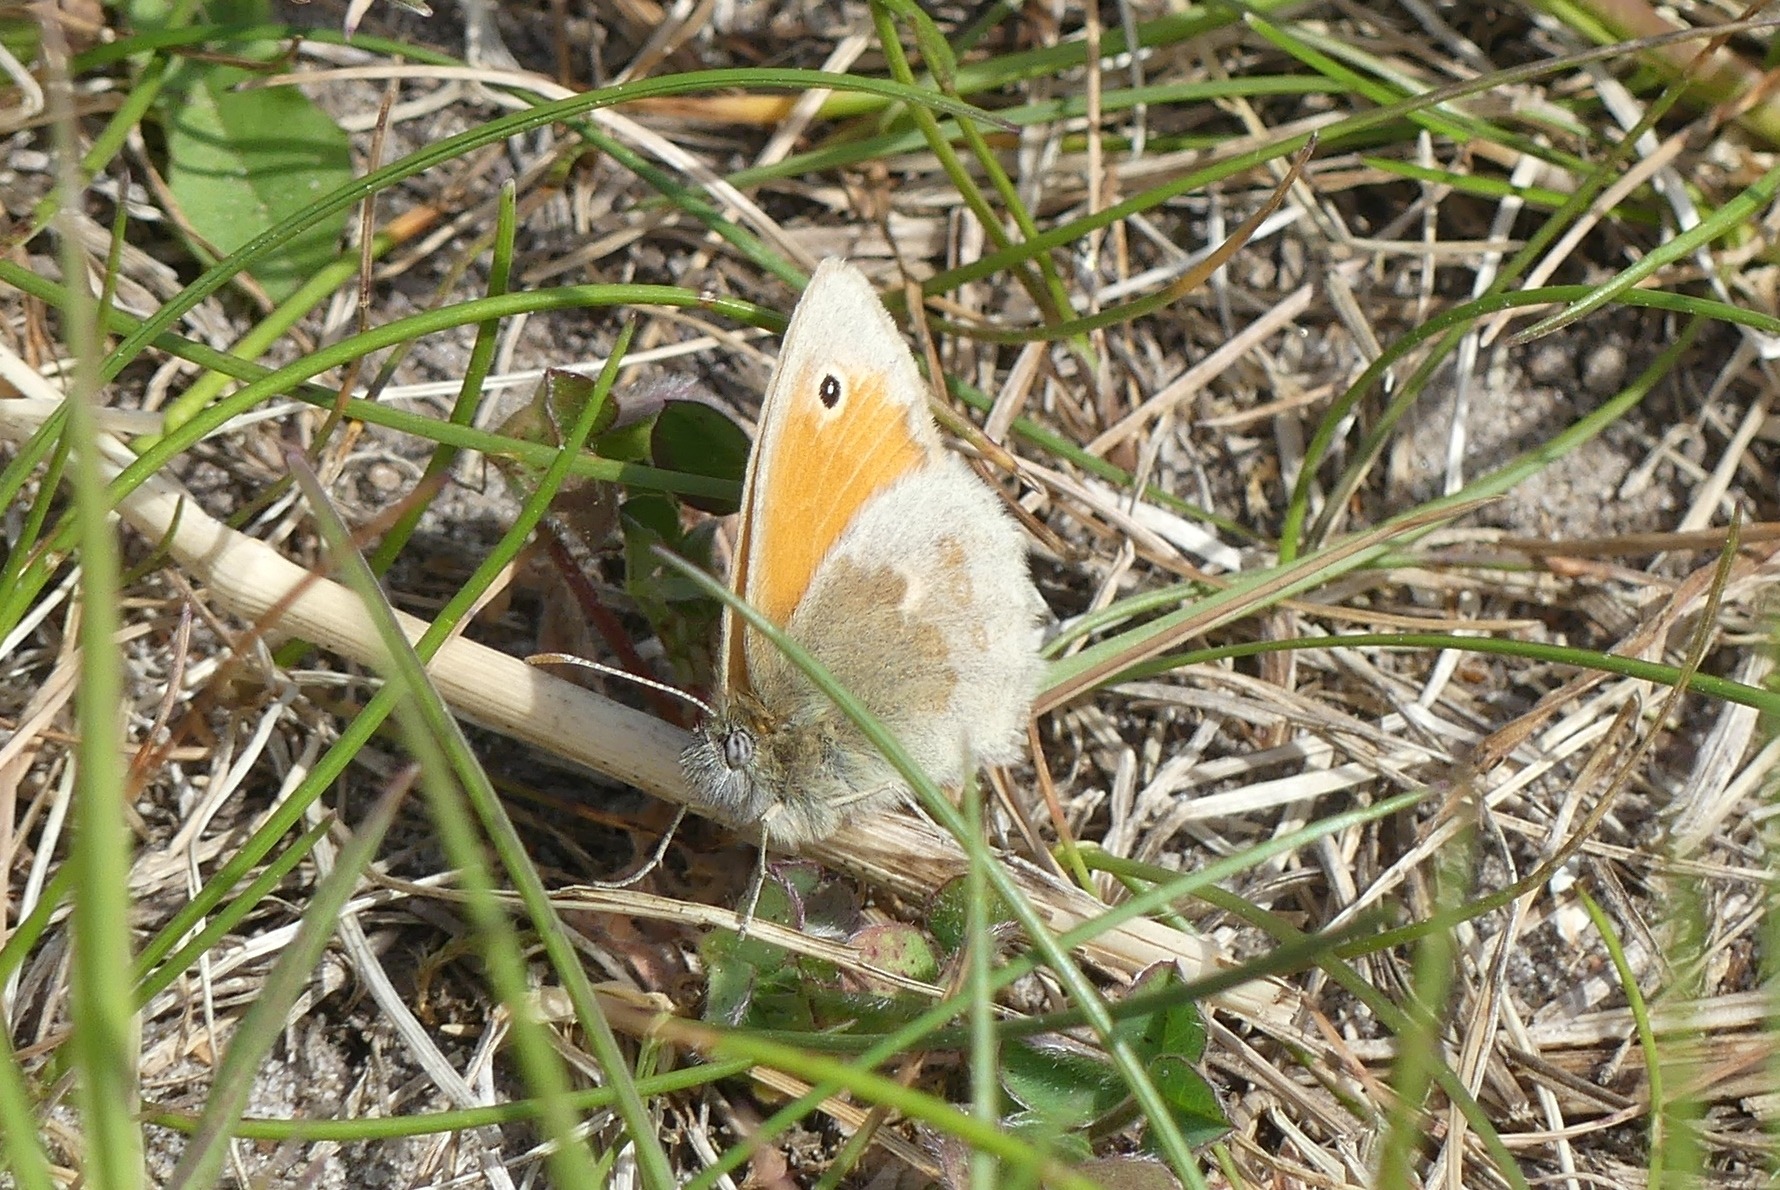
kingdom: Animalia
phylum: Arthropoda
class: Insecta
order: Lepidoptera
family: Nymphalidae
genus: Coenonympha
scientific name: Coenonympha pamphilus
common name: Okkergul randøje
